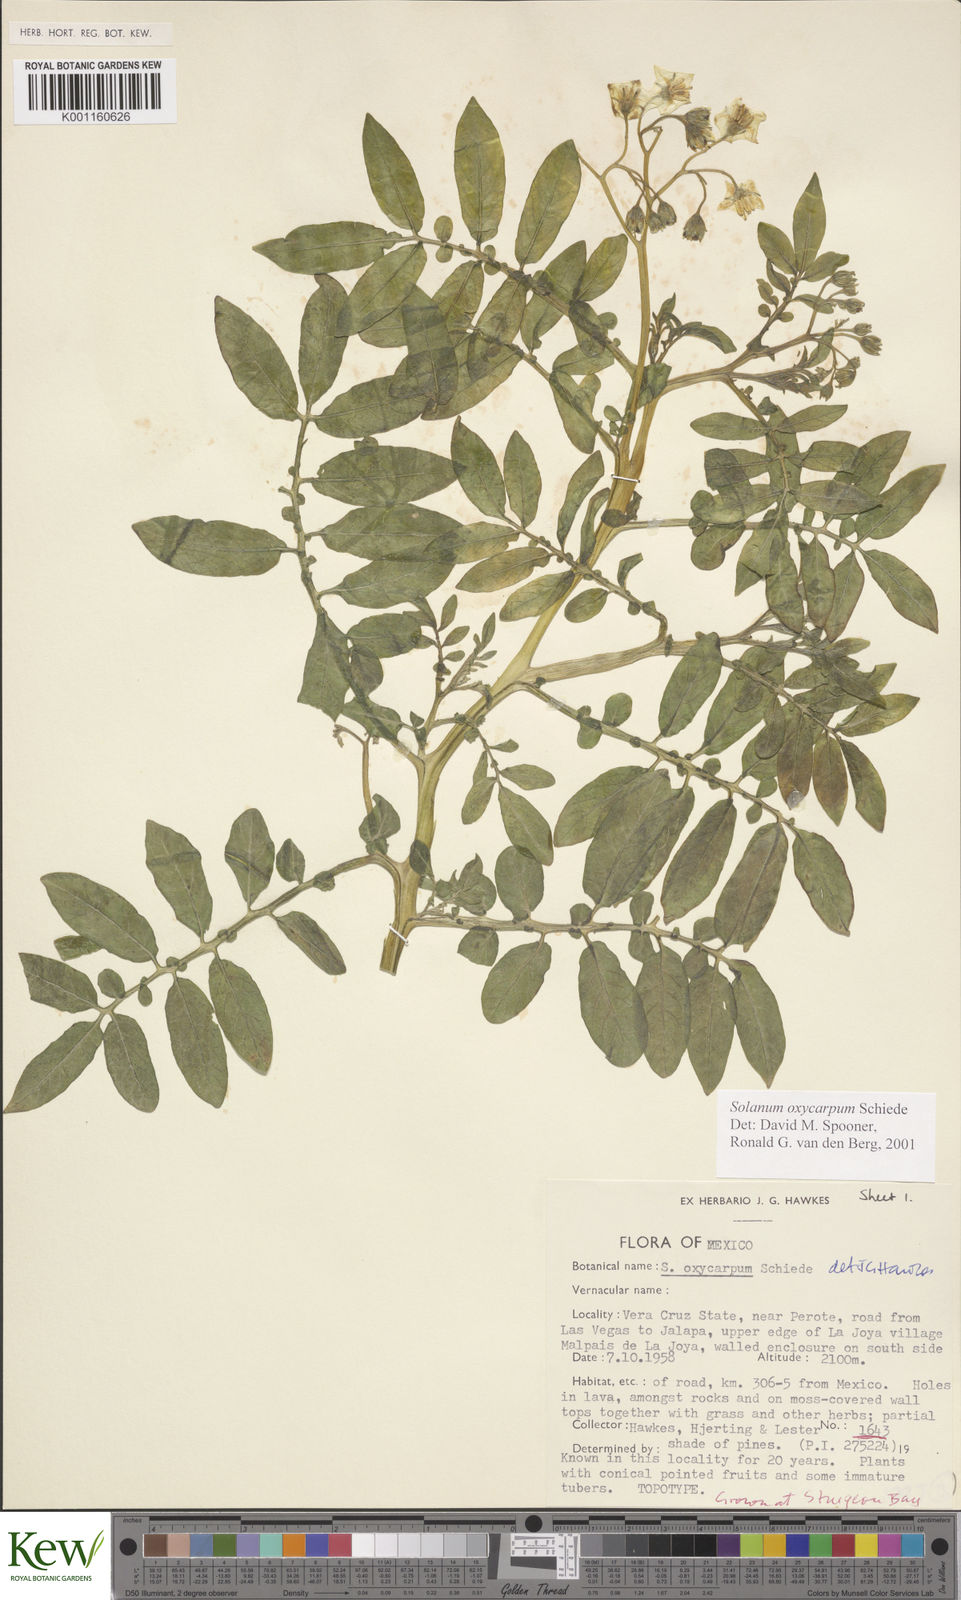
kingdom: Plantae
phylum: Tracheophyta
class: Magnoliopsida
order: Solanales
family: Solanaceae
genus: Solanum
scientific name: Solanum oxycarpum
